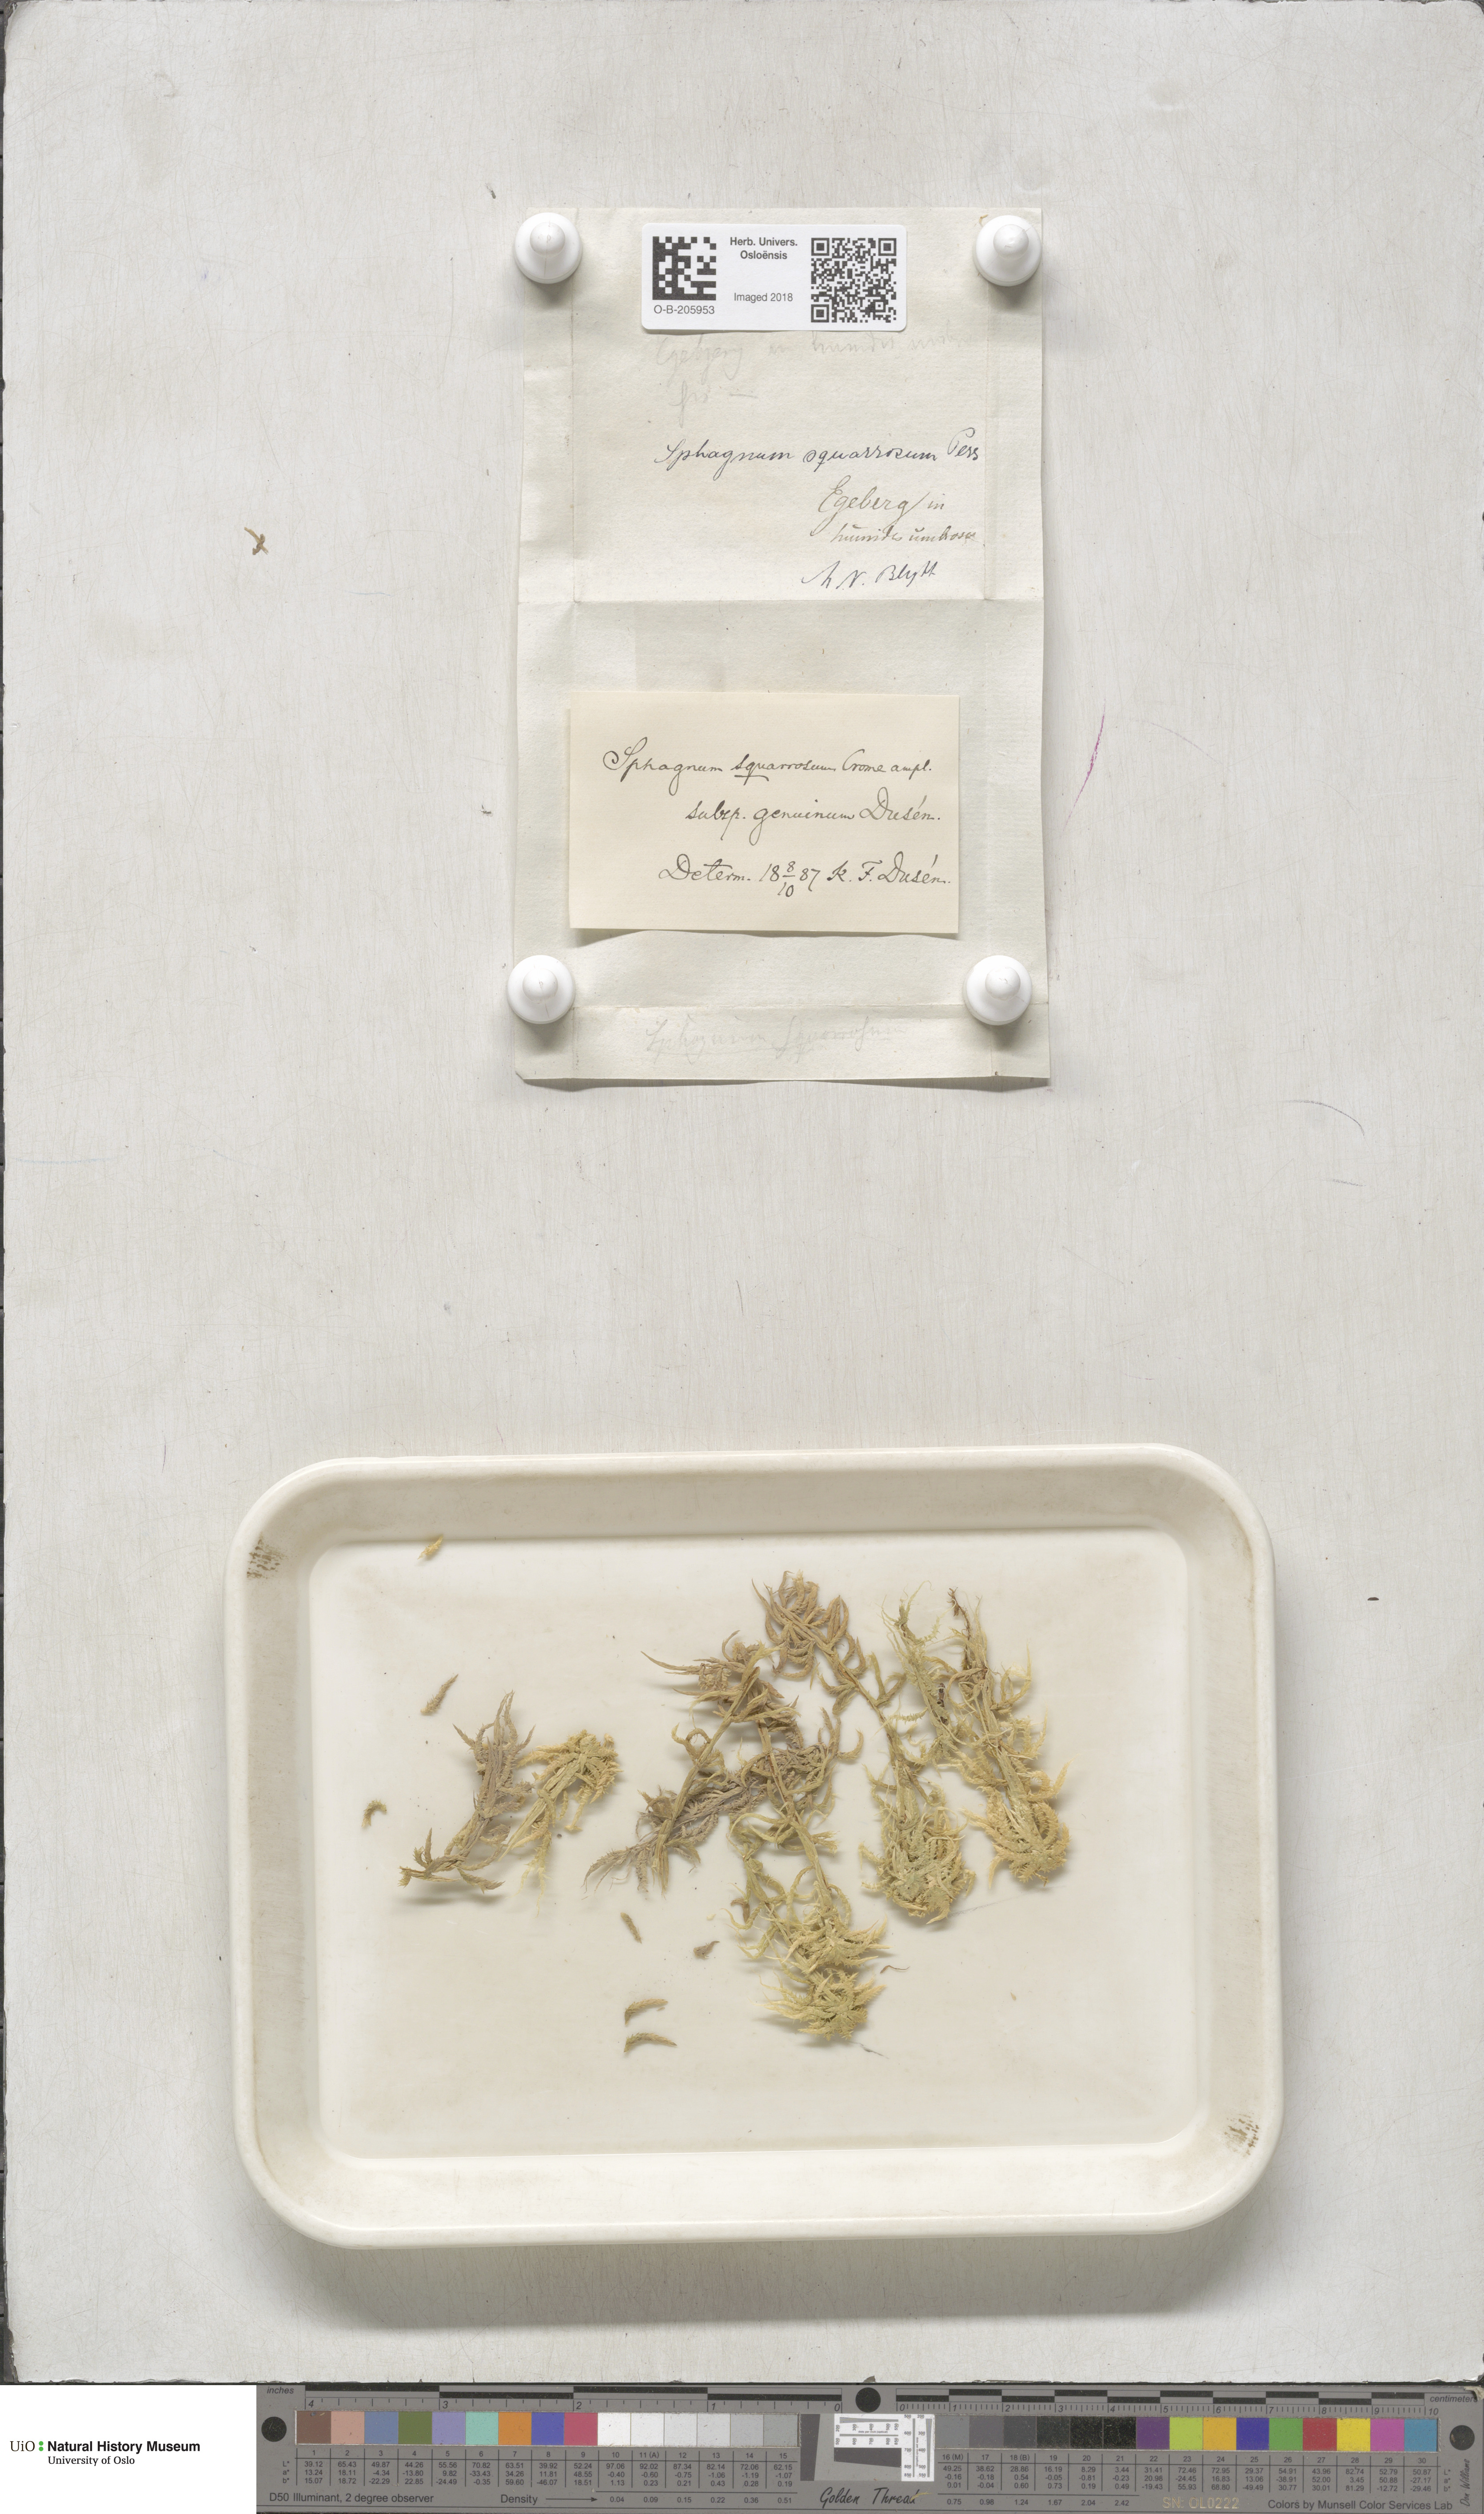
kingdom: Plantae
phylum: Bryophyta
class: Sphagnopsida
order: Sphagnales
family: Sphagnaceae
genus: Sphagnum
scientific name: Sphagnum squarrosum
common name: Shaggy peat moss
